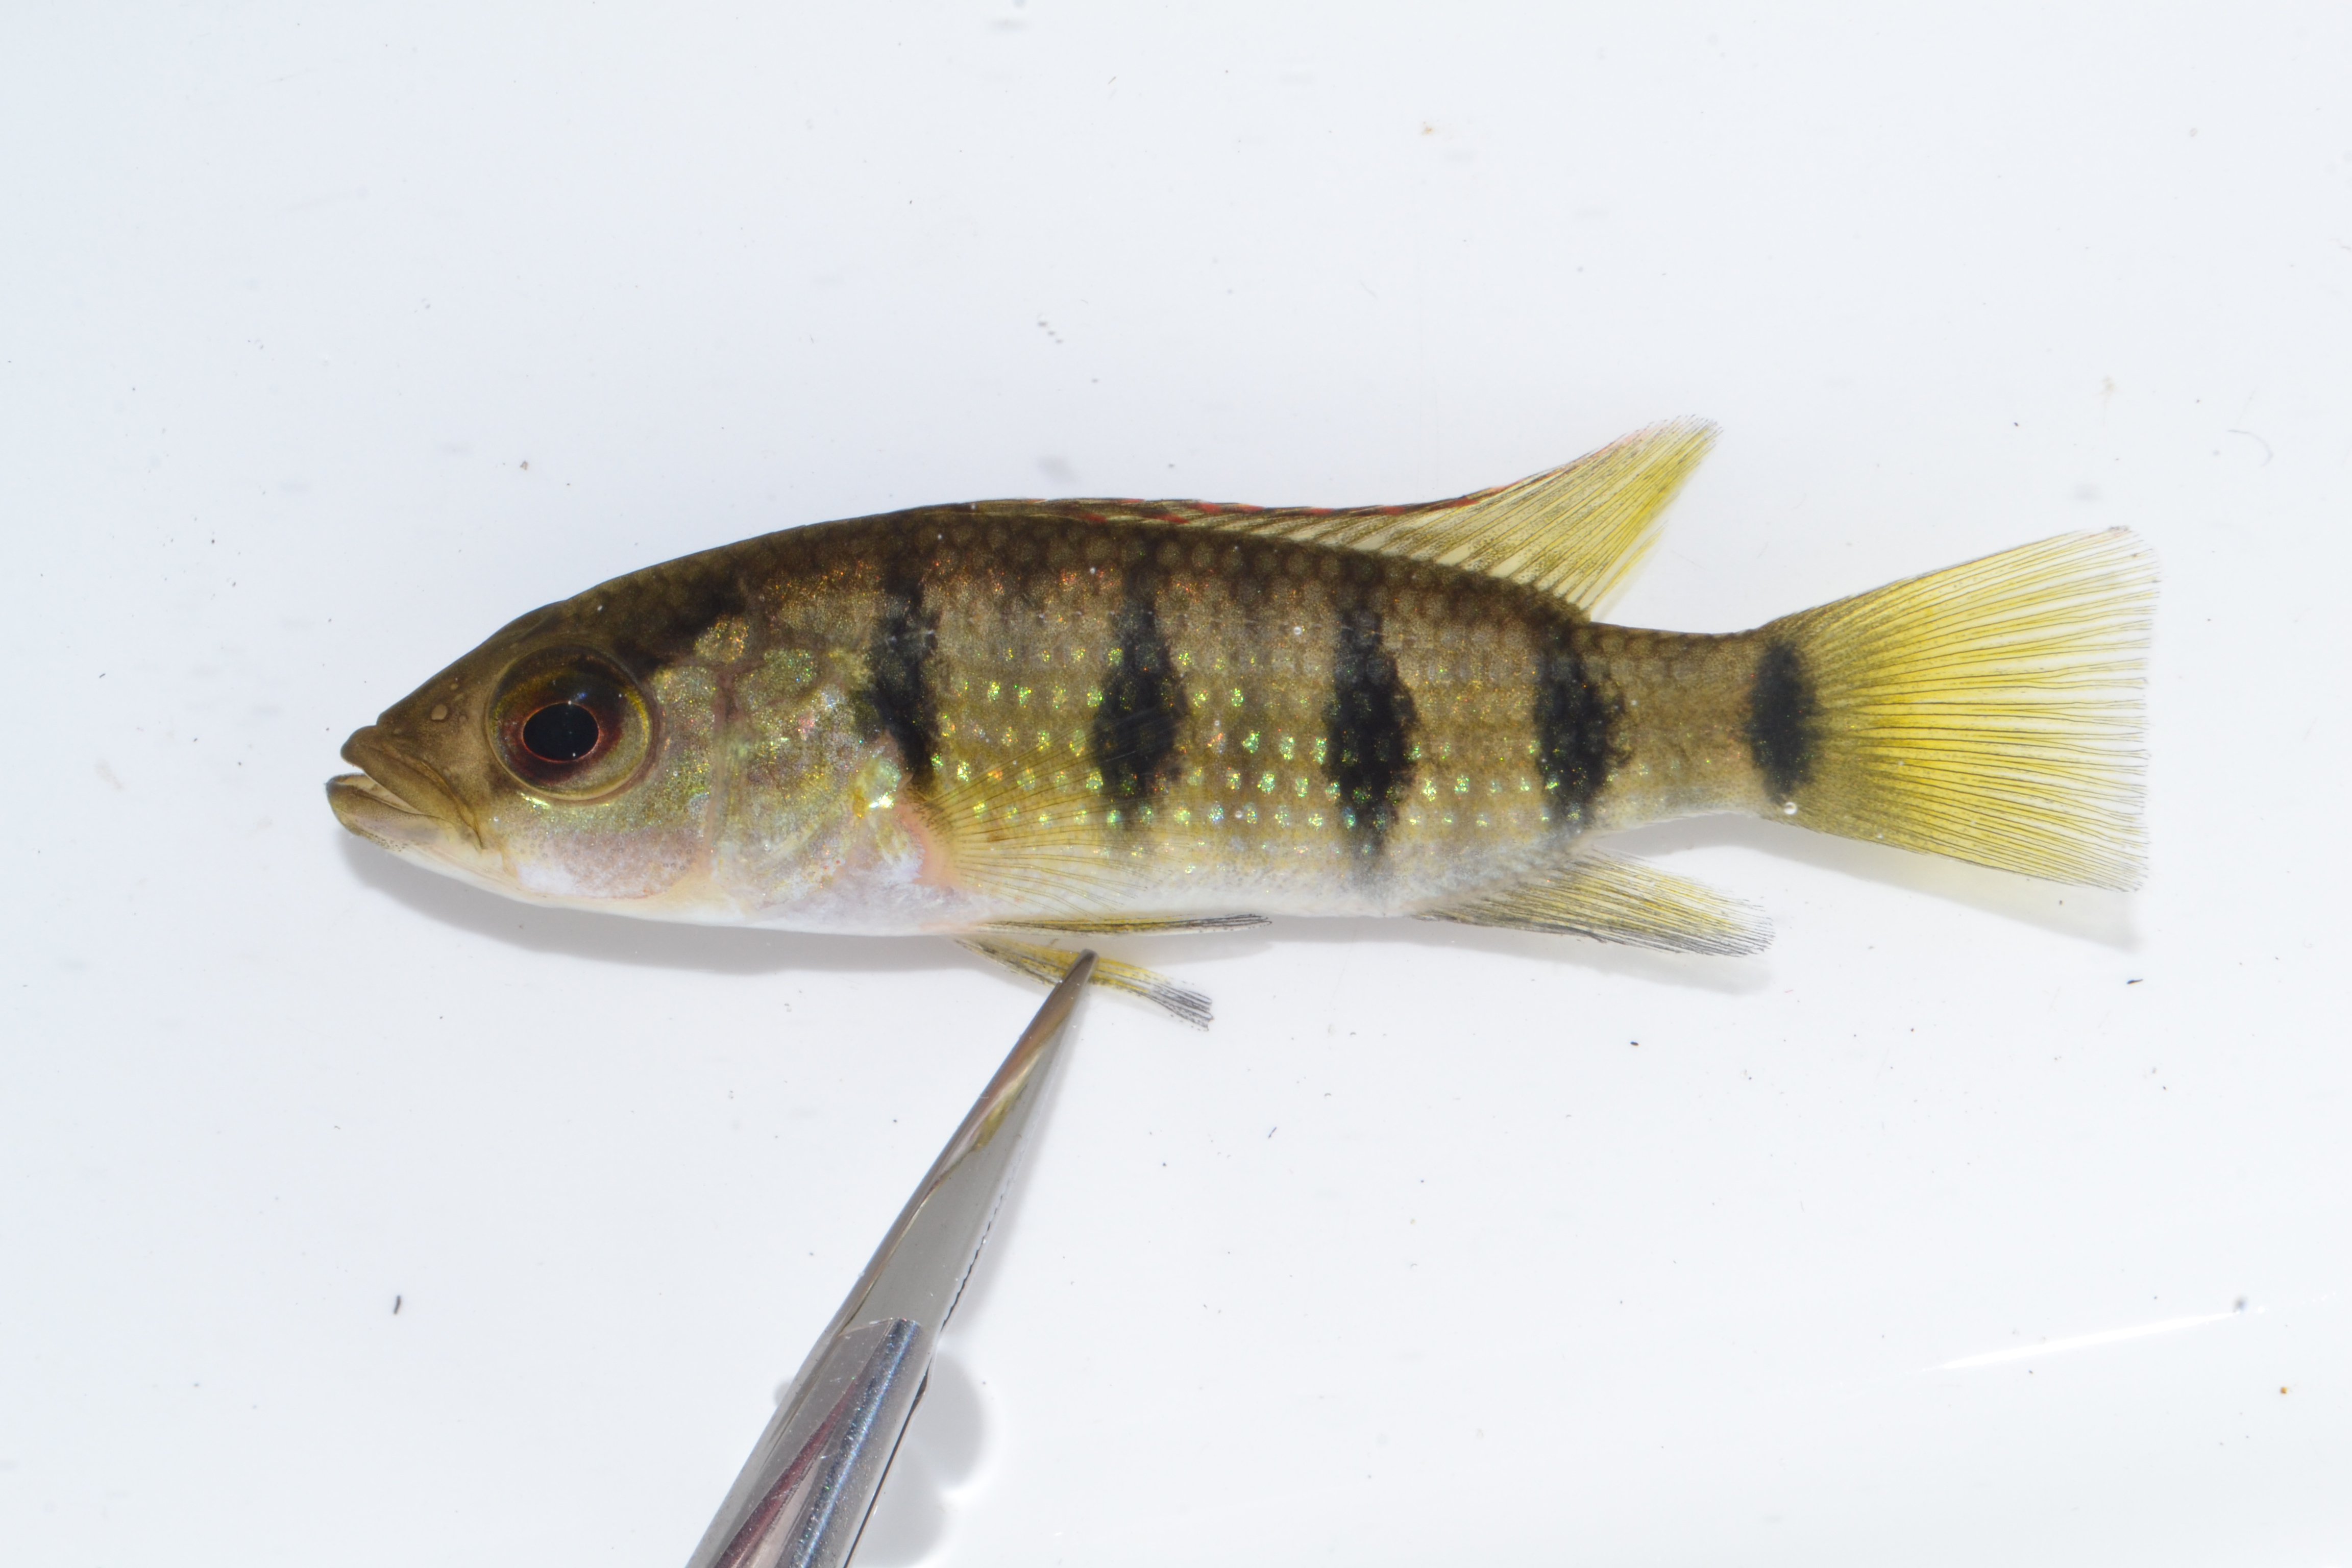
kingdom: Animalia
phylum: Chordata
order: Perciformes
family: Cichlidae
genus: Hemichromis
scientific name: Hemichromis elongatus
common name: Jewel cichlid
